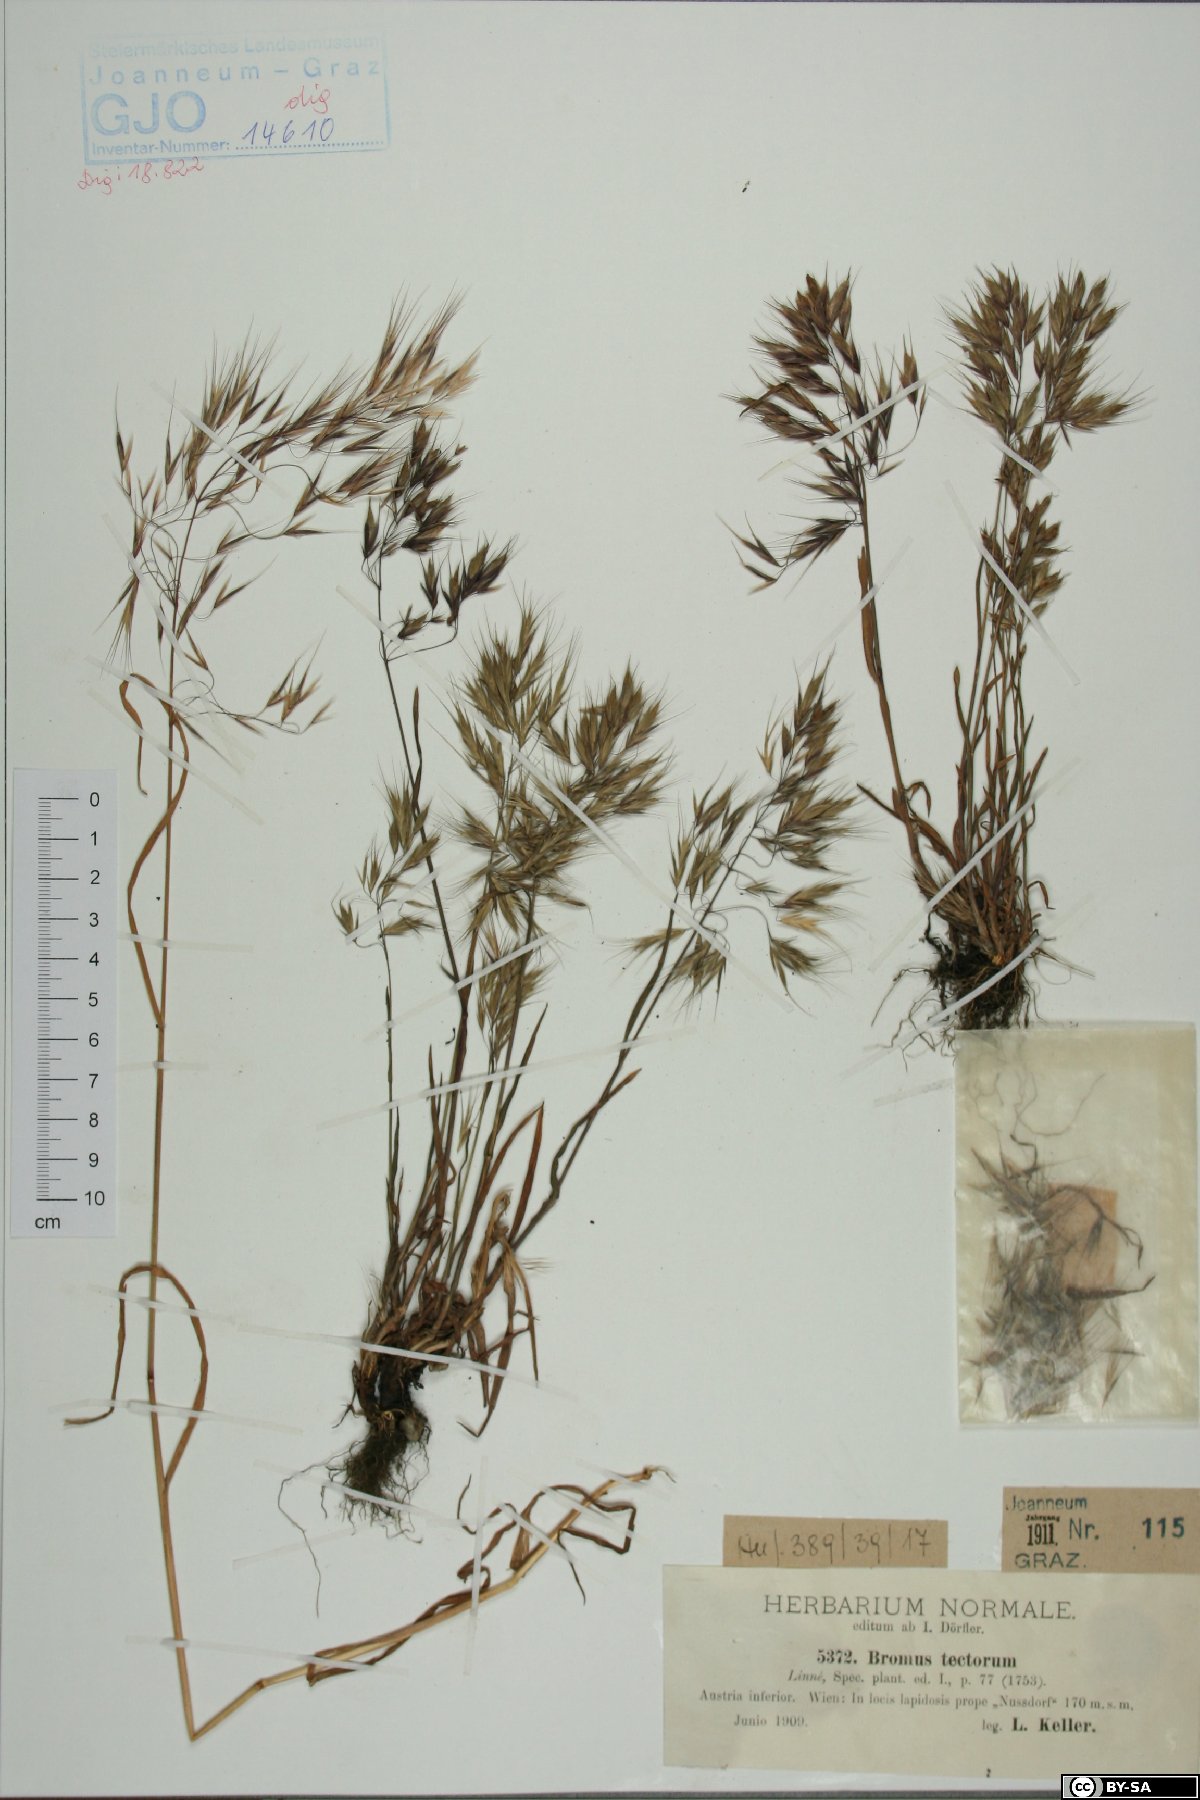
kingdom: Plantae
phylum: Tracheophyta
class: Liliopsida
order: Poales
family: Poaceae
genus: Bromus
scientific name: Bromus tectorum
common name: Cheatgrass
